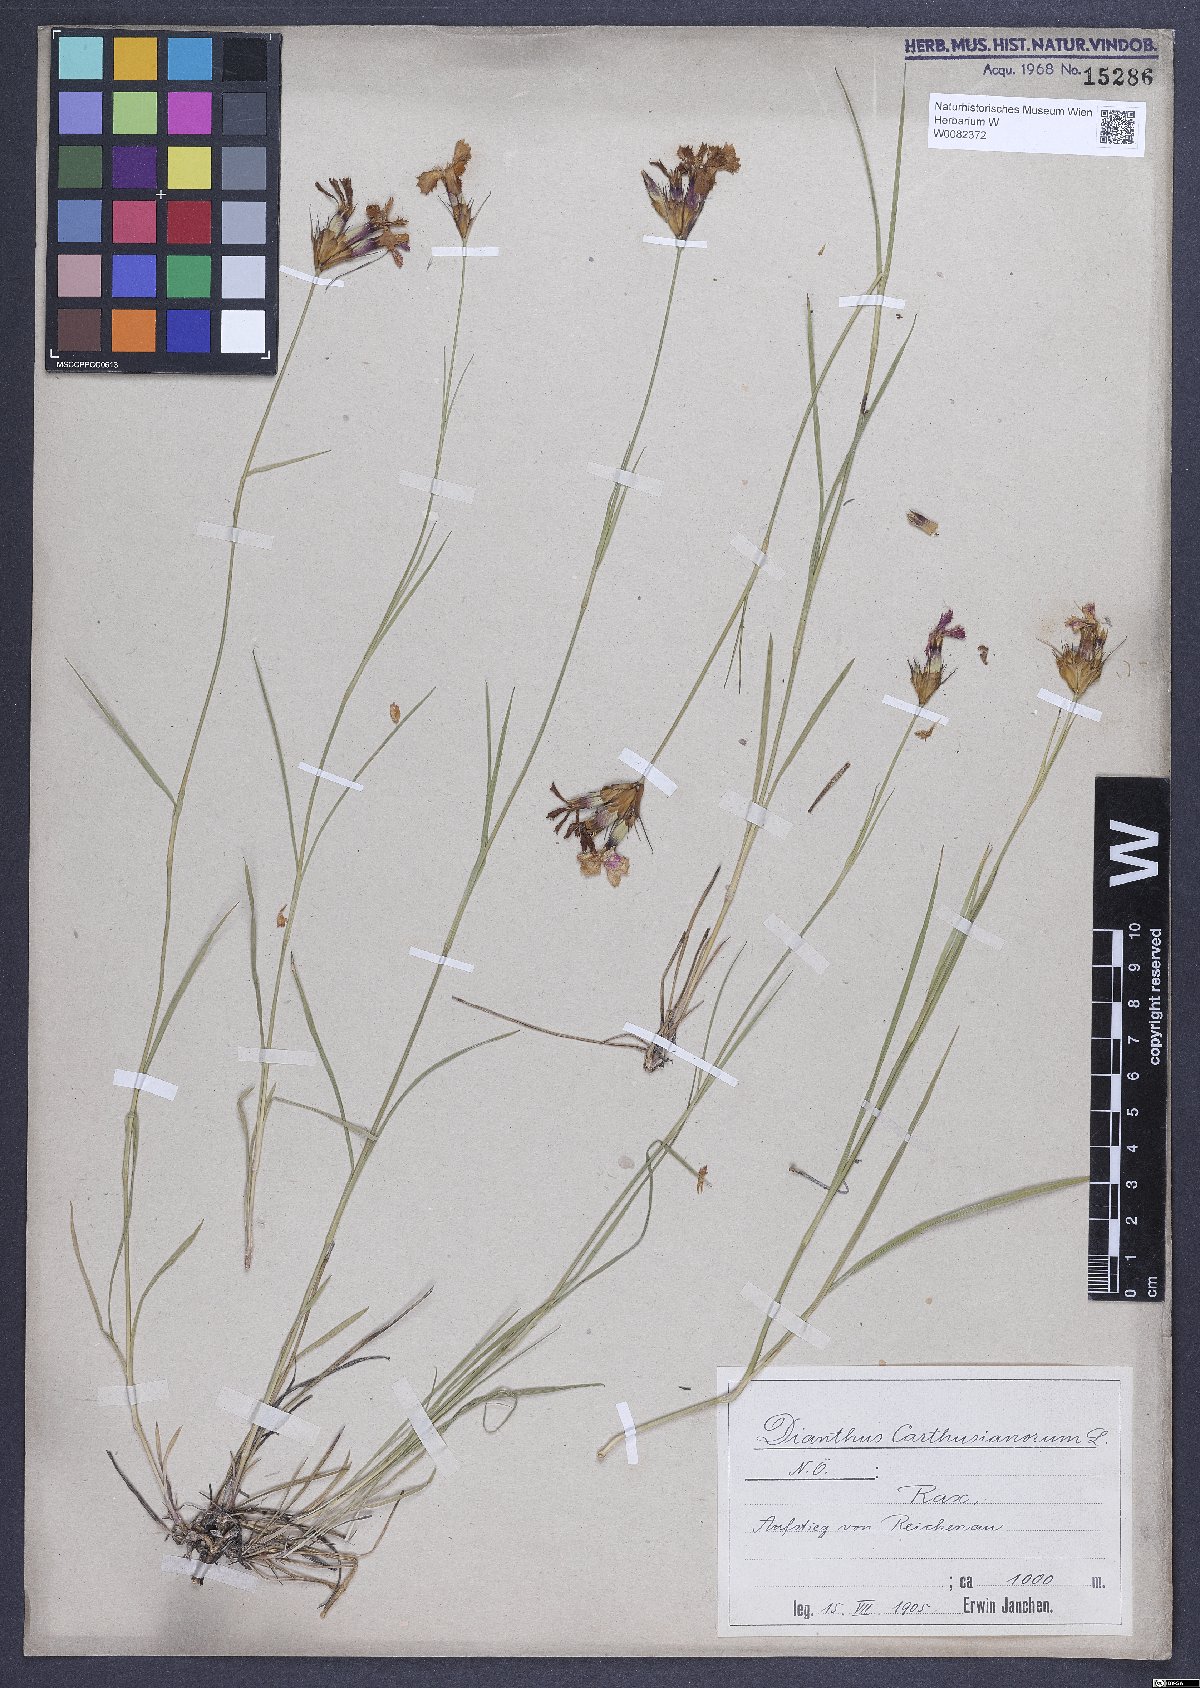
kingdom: Plantae
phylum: Tracheophyta
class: Magnoliopsida
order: Caryophyllales
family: Caryophyllaceae
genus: Dianthus
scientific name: Dianthus carthusianorum
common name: Carthusian pink
